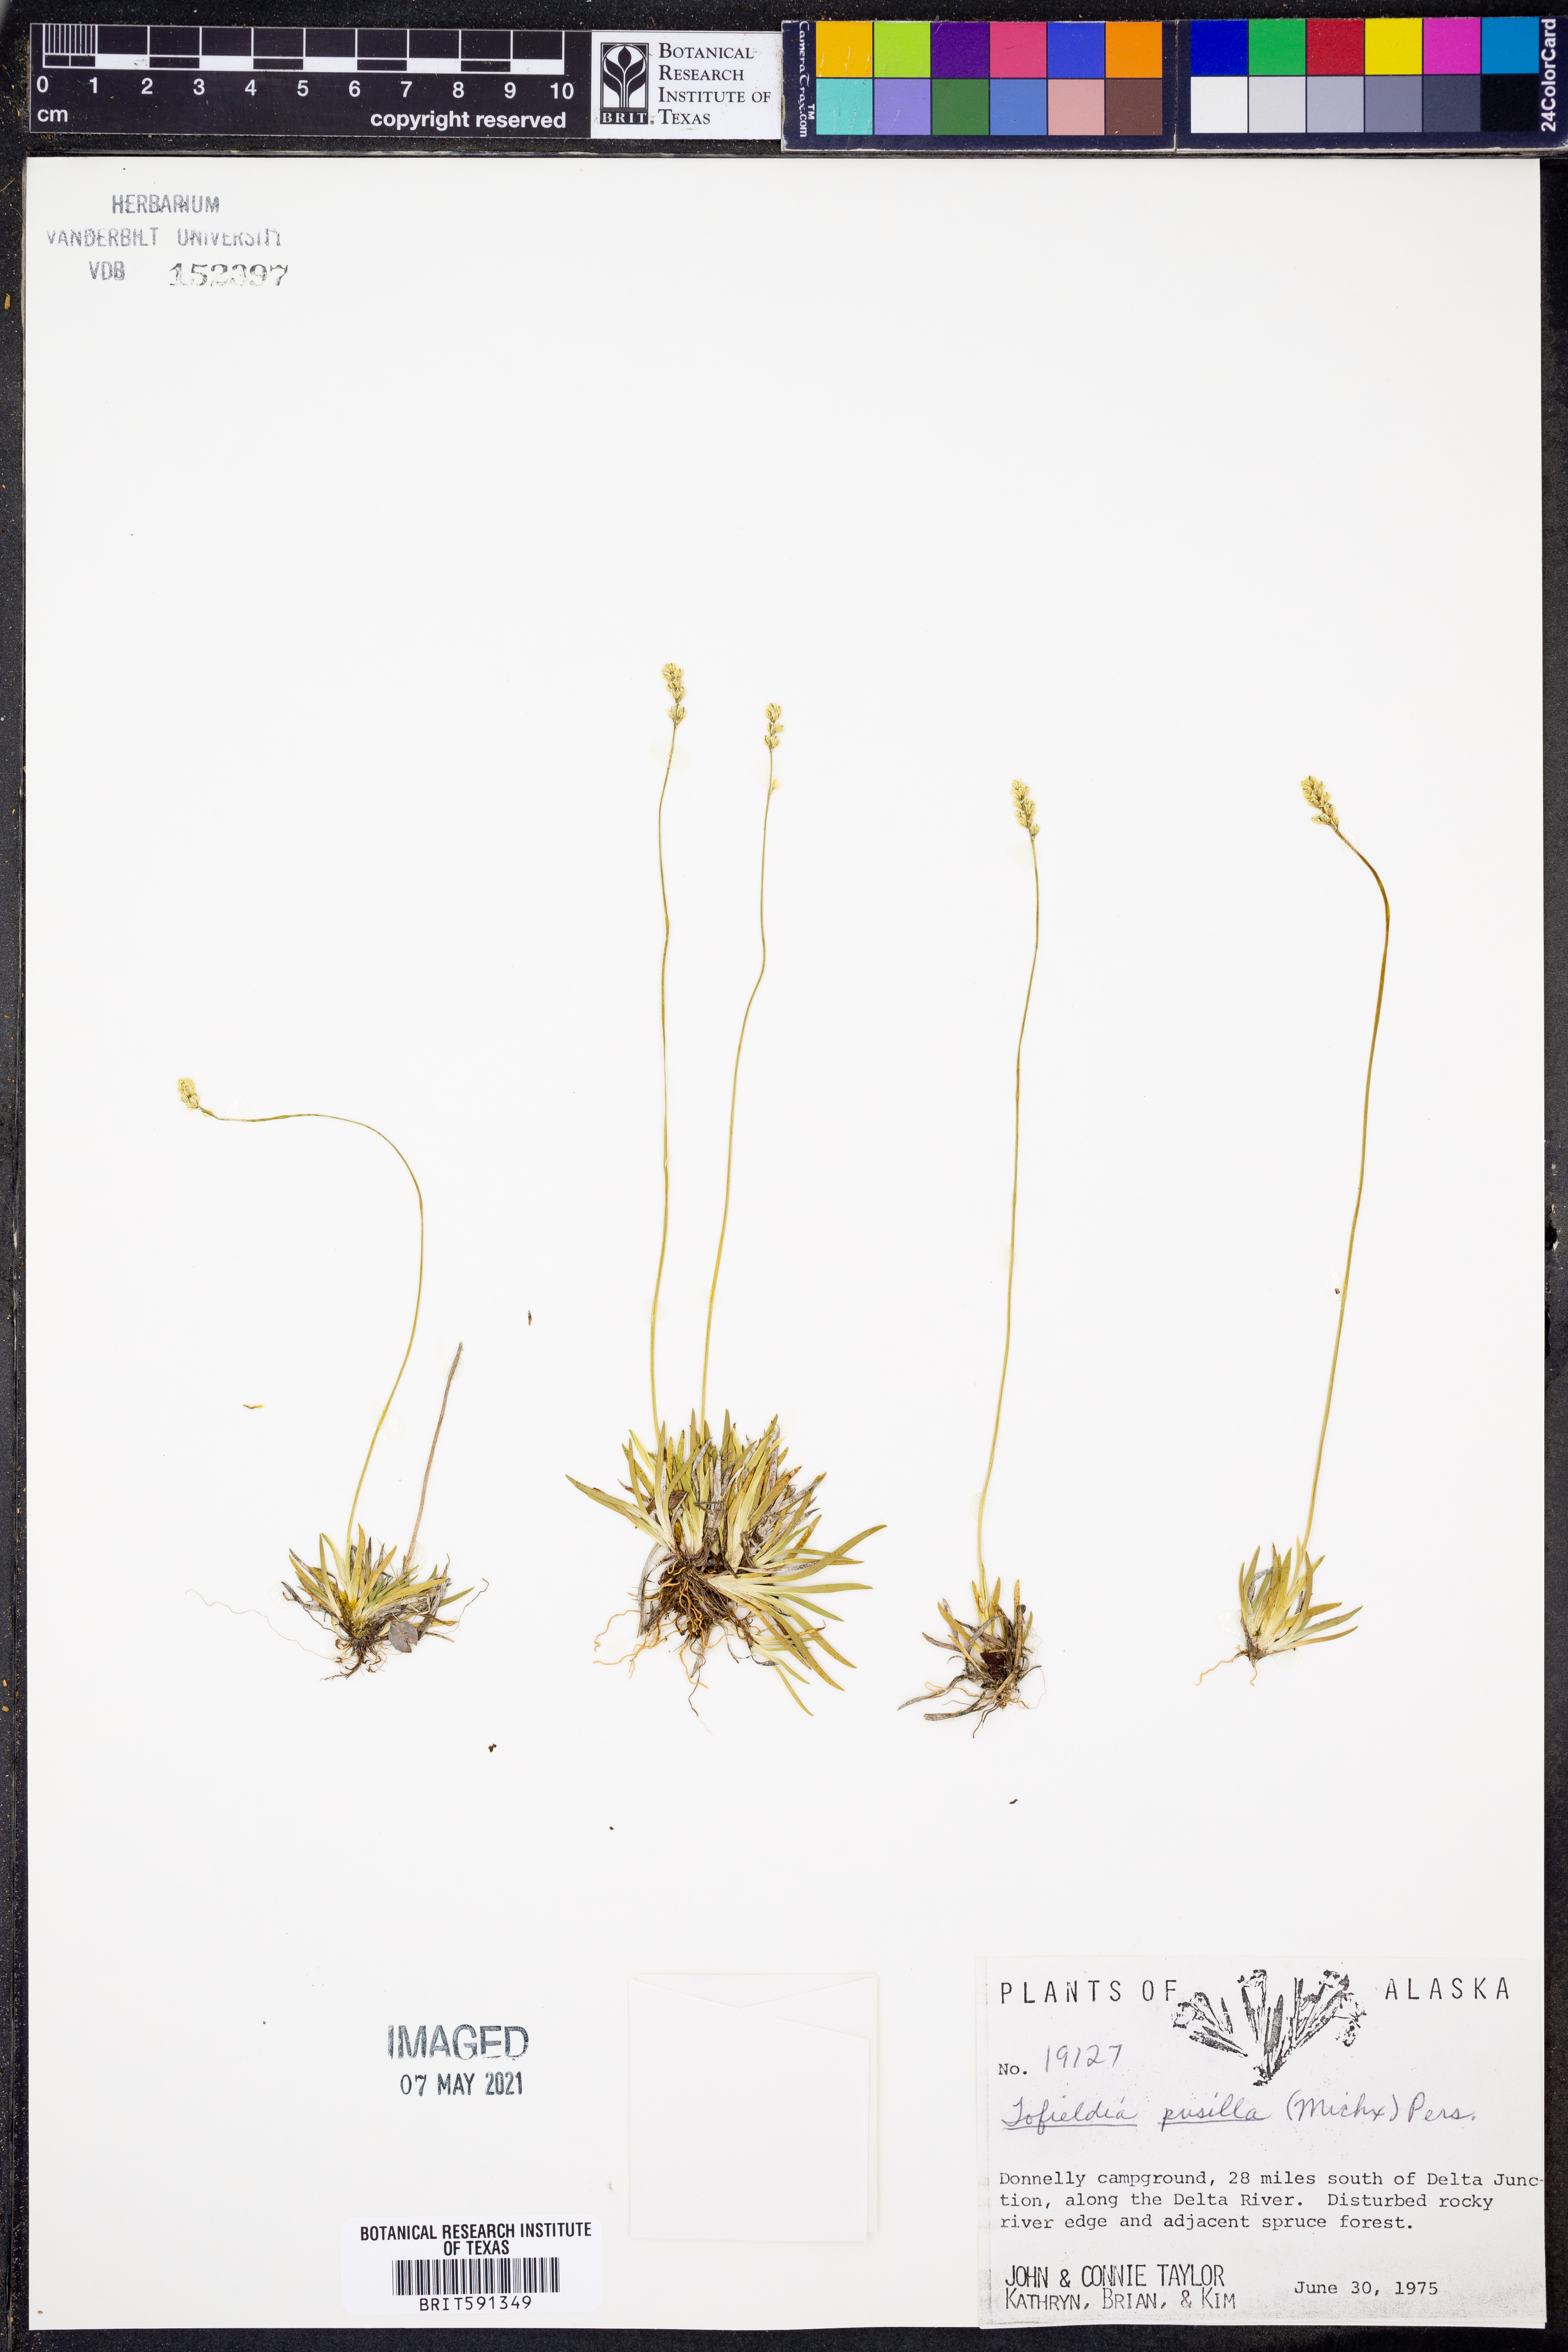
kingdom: Plantae
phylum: Tracheophyta
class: Liliopsida
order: Alismatales
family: Tofieldiaceae
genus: Tofieldia
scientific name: Tofieldia pusilla
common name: Scottish false asphodel
